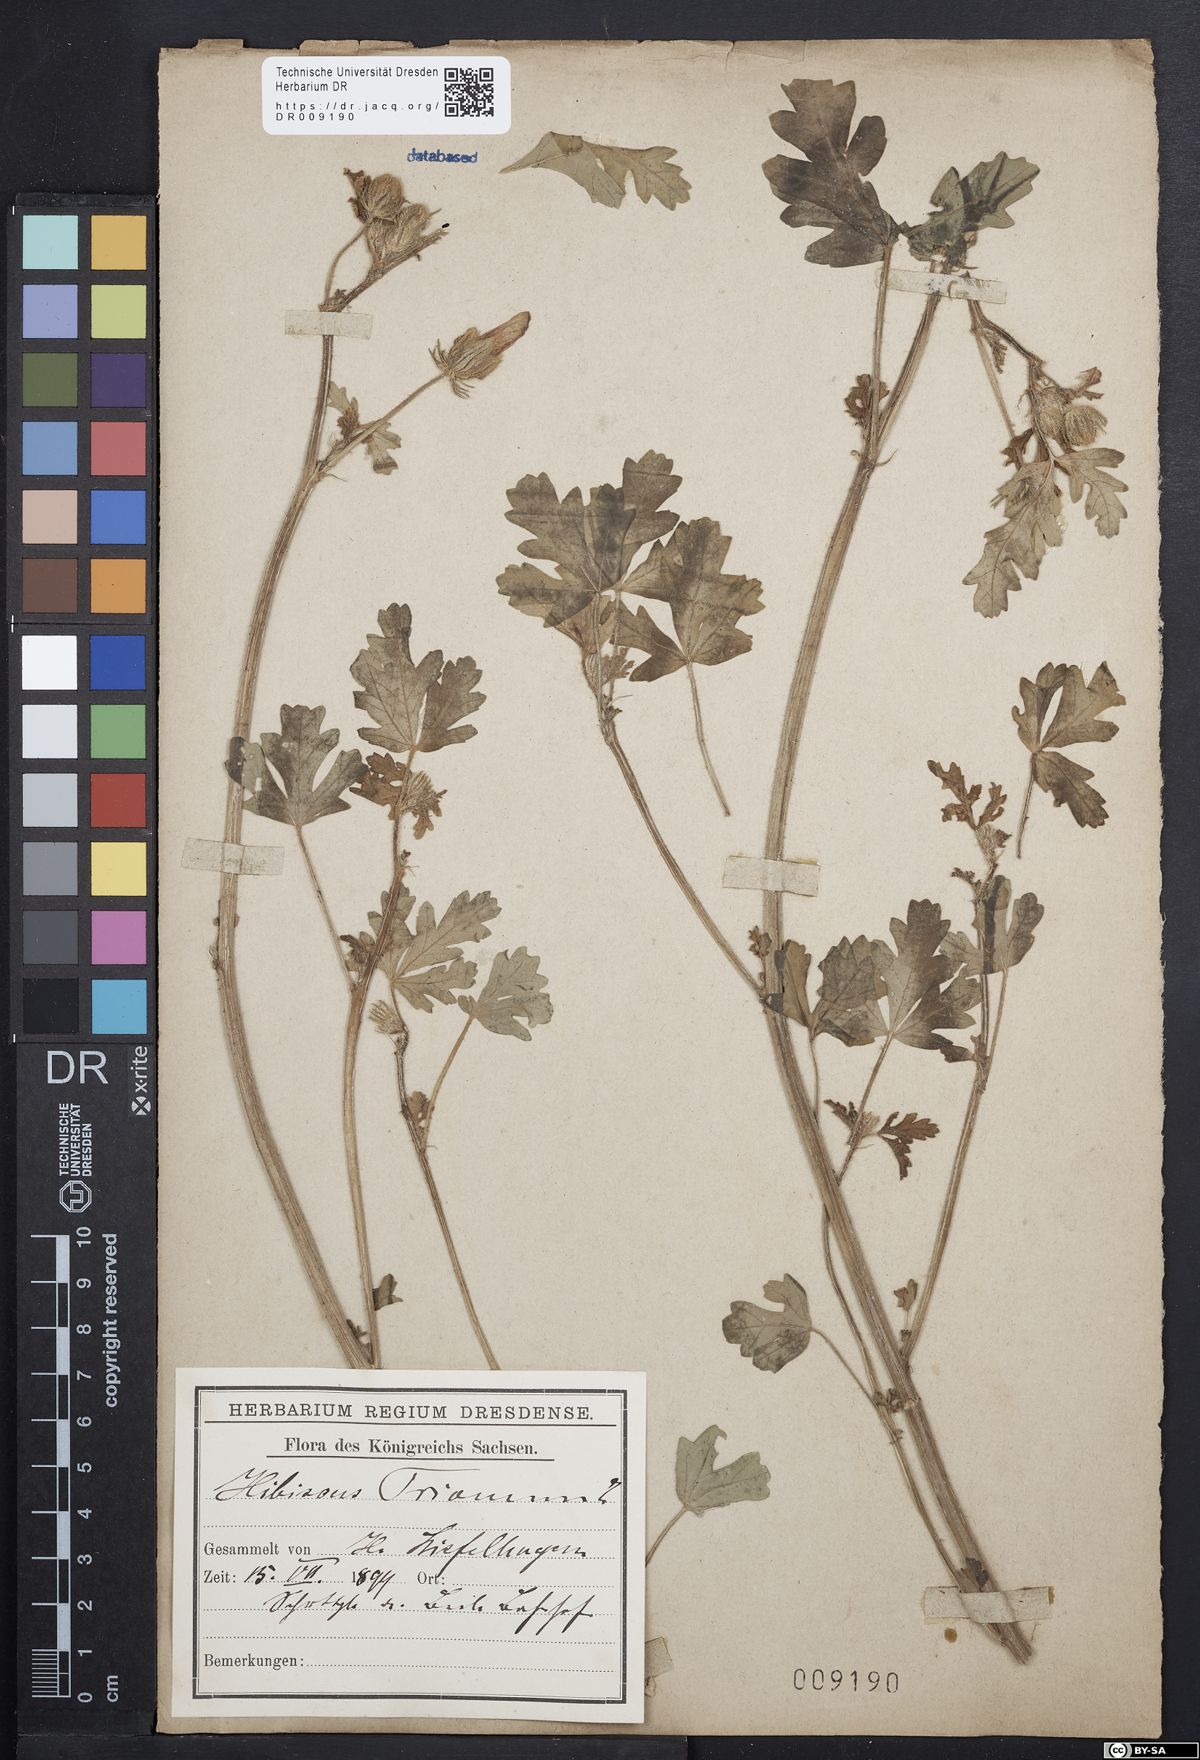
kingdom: Plantae
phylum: Tracheophyta
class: Magnoliopsida
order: Malvales
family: Malvaceae
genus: Hibiscus
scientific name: Hibiscus trionum
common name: Bladder ketmia
